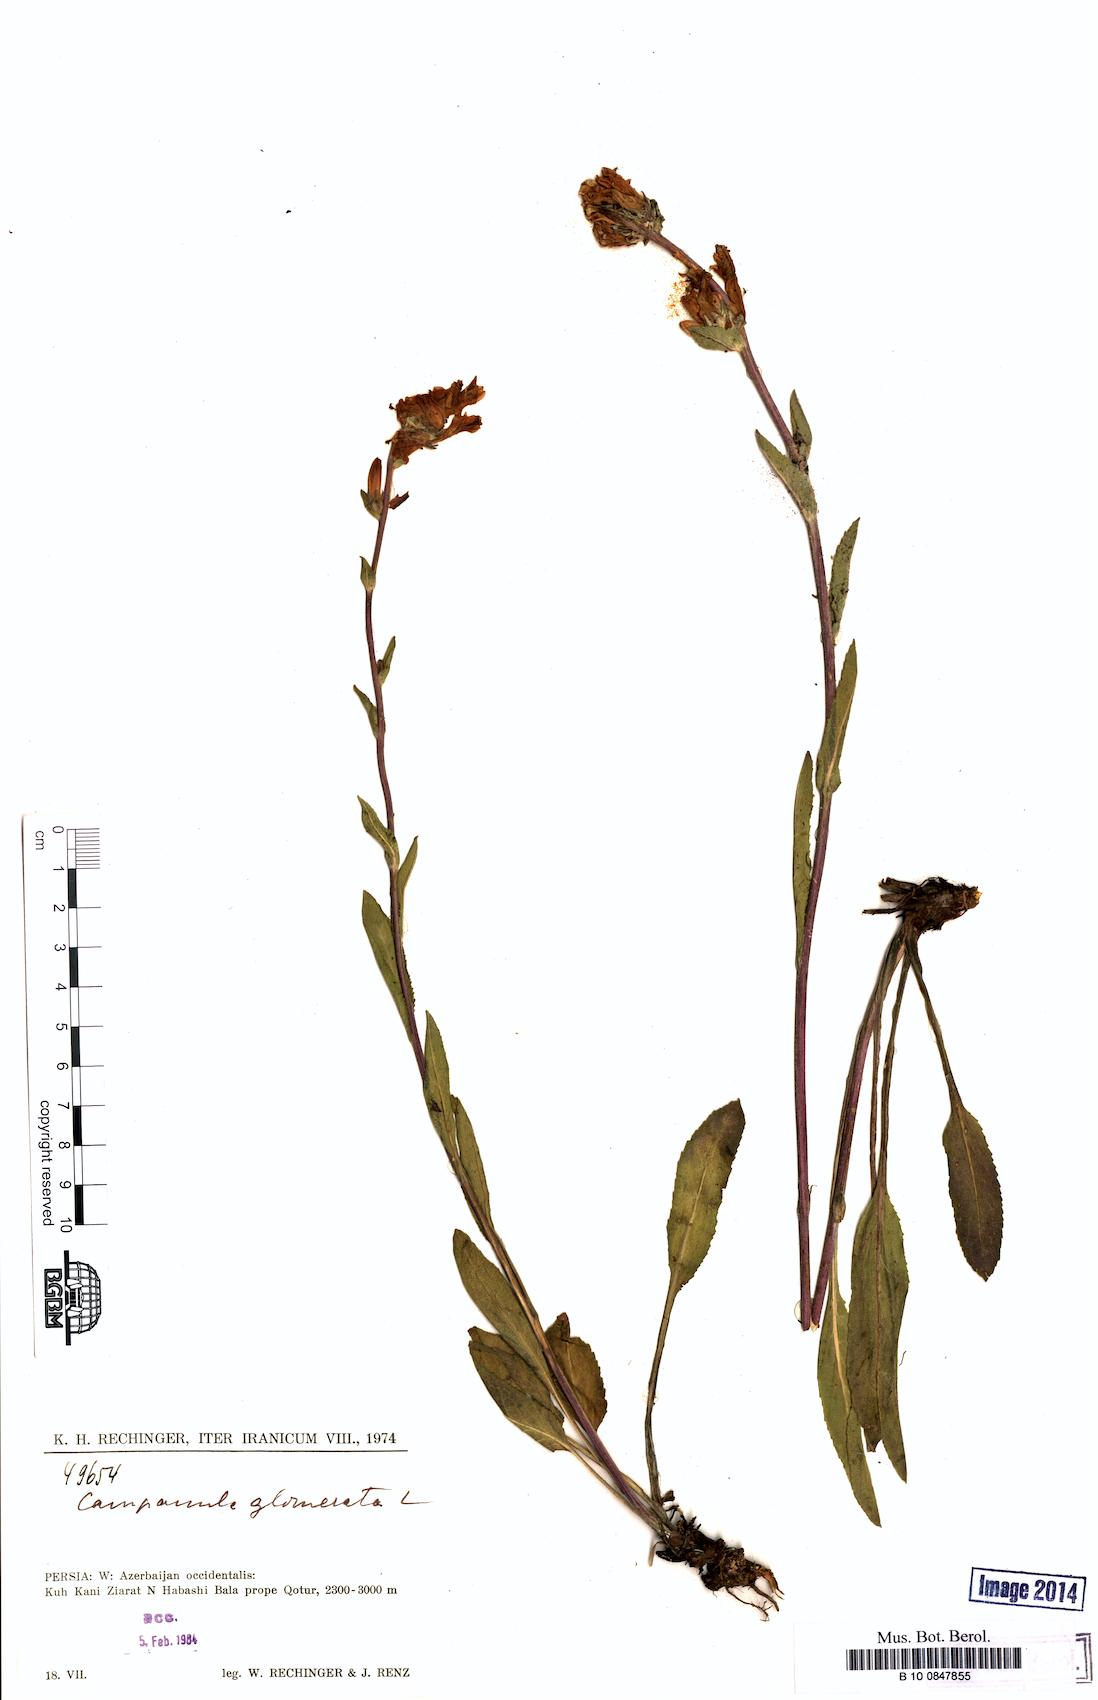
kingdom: Plantae
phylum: Tracheophyta
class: Magnoliopsida
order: Asterales
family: Campanulaceae
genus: Campanula
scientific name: Campanula glomerata
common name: Clustered bellflower
